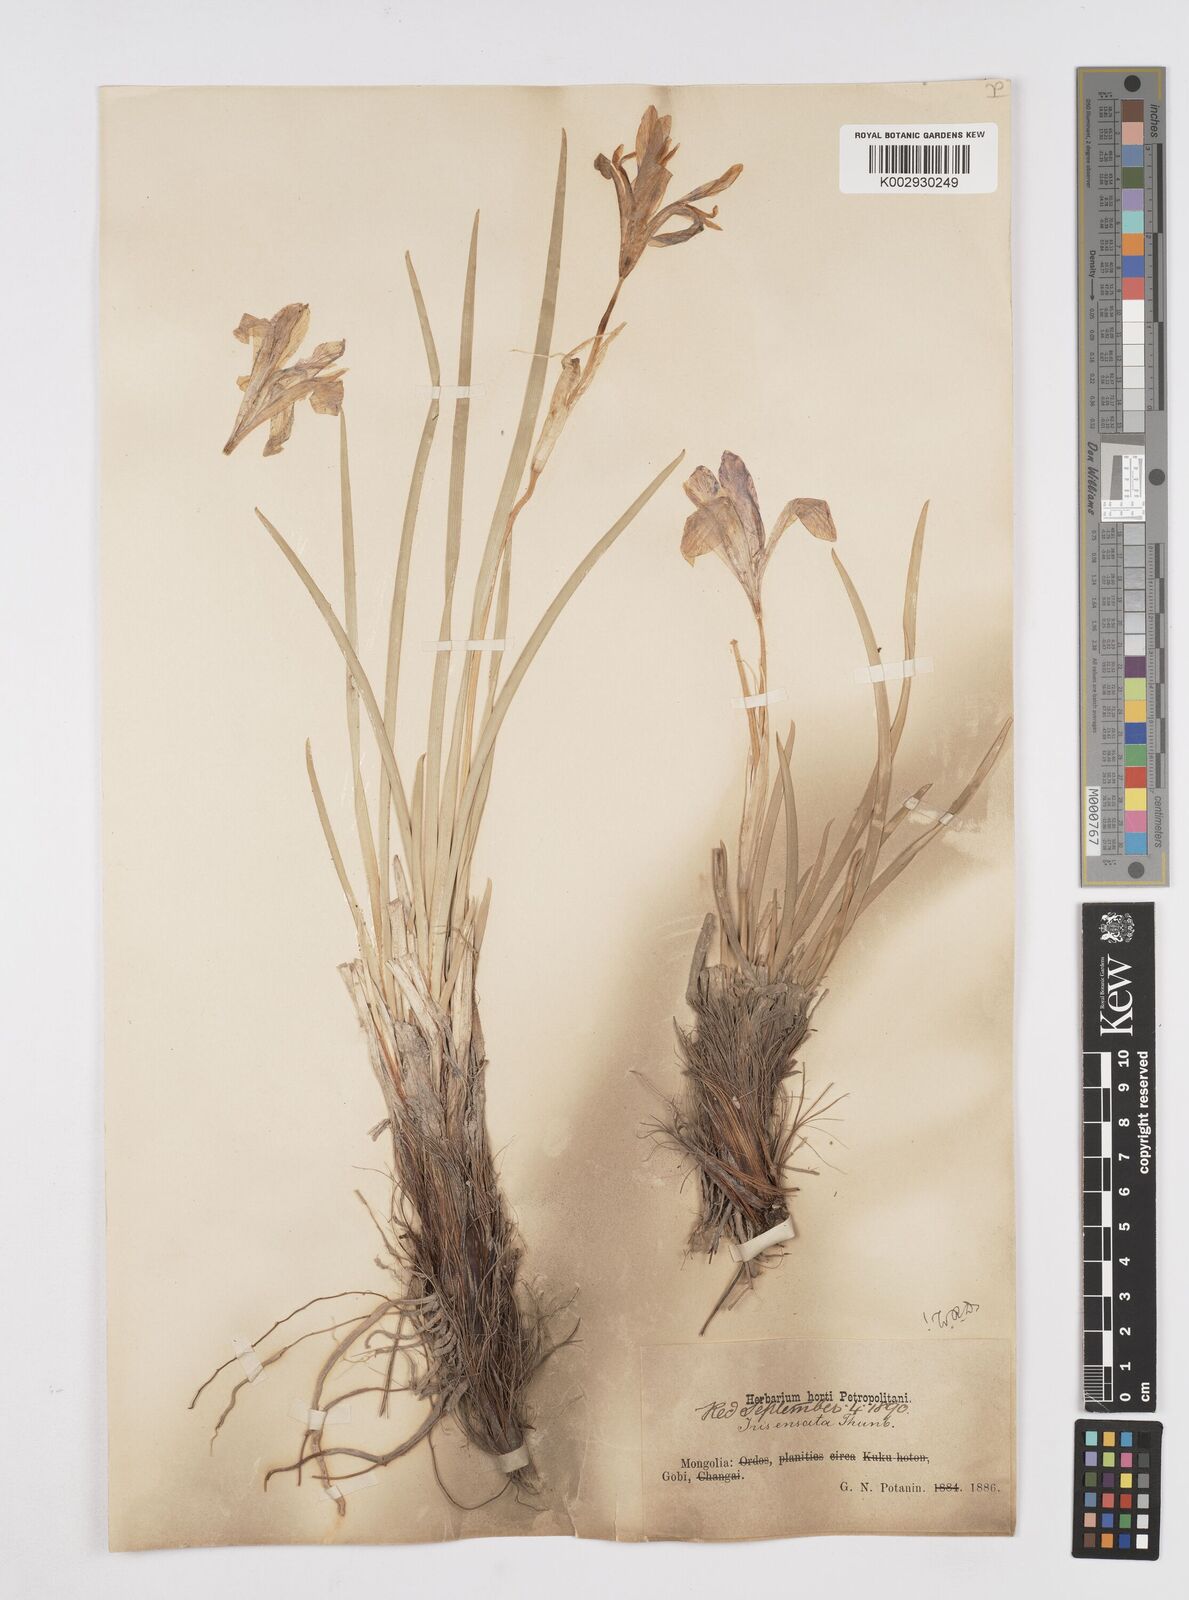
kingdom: Plantae
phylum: Tracheophyta
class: Liliopsida
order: Asparagales
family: Iridaceae
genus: Iris
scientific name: Iris lactea
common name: White-flower chinese iris
